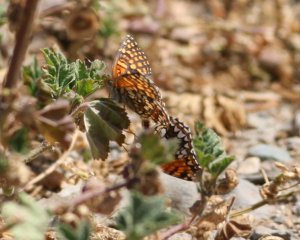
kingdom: Animalia
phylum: Arthropoda
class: Insecta
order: Lepidoptera
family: Nymphalidae
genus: Chlosyne
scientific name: Chlosyne gabbii
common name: Gabb's Checkerspot
